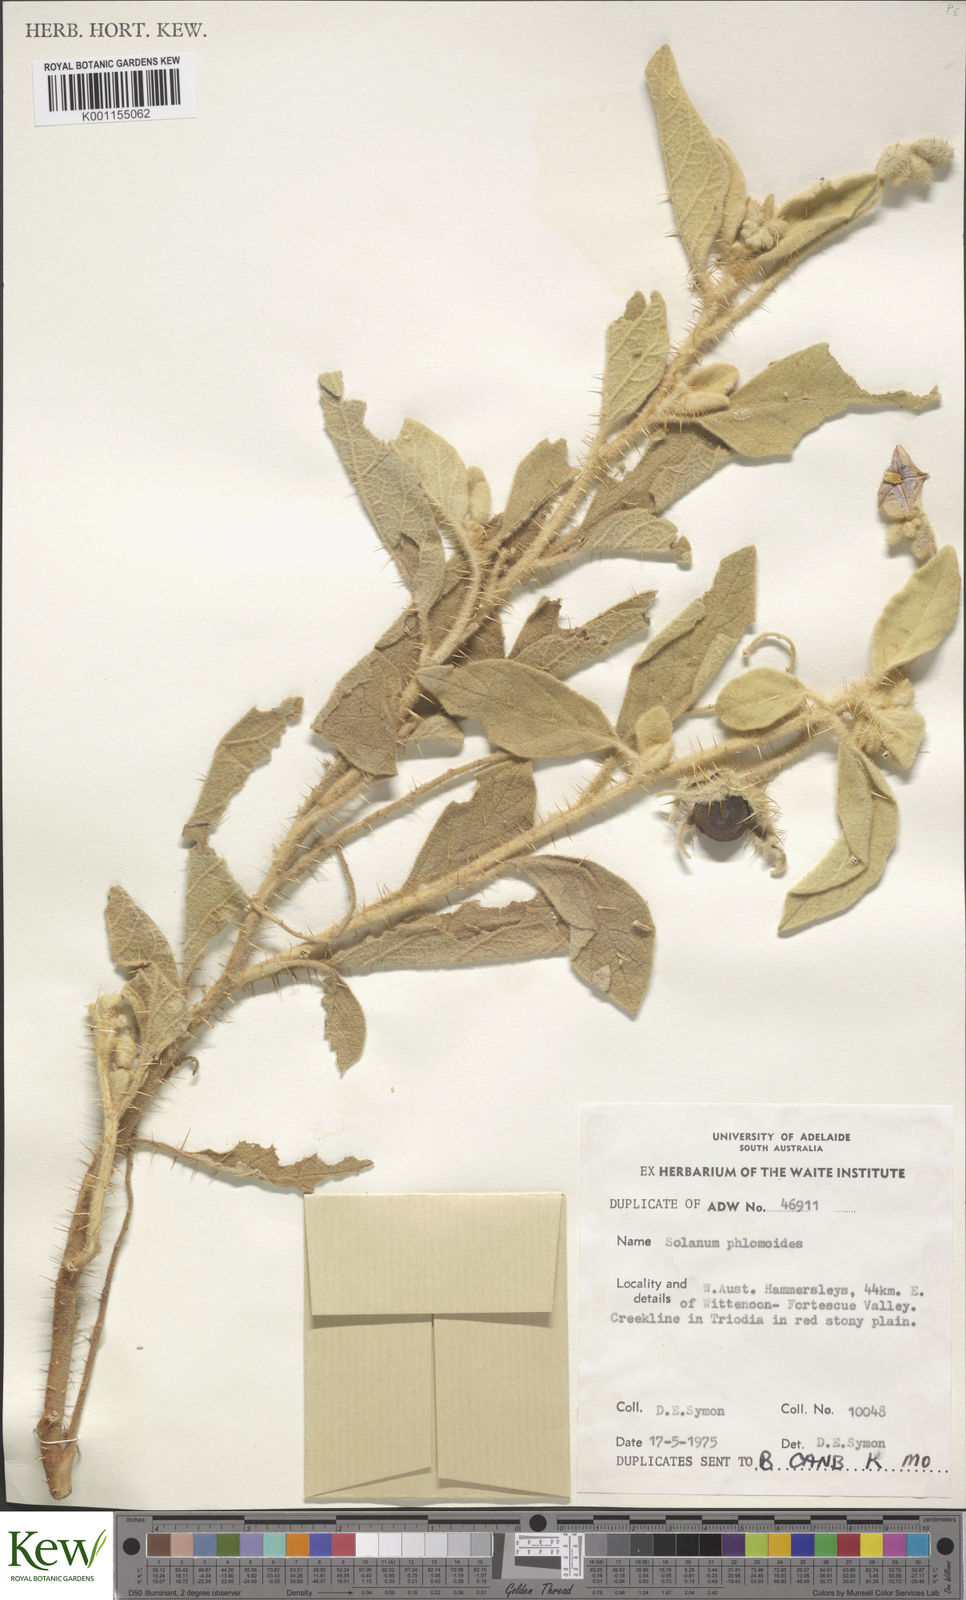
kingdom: Plantae
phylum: Tracheophyta
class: Magnoliopsida
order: Solanales
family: Solanaceae
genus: Solanum
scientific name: Solanum phlomoides
